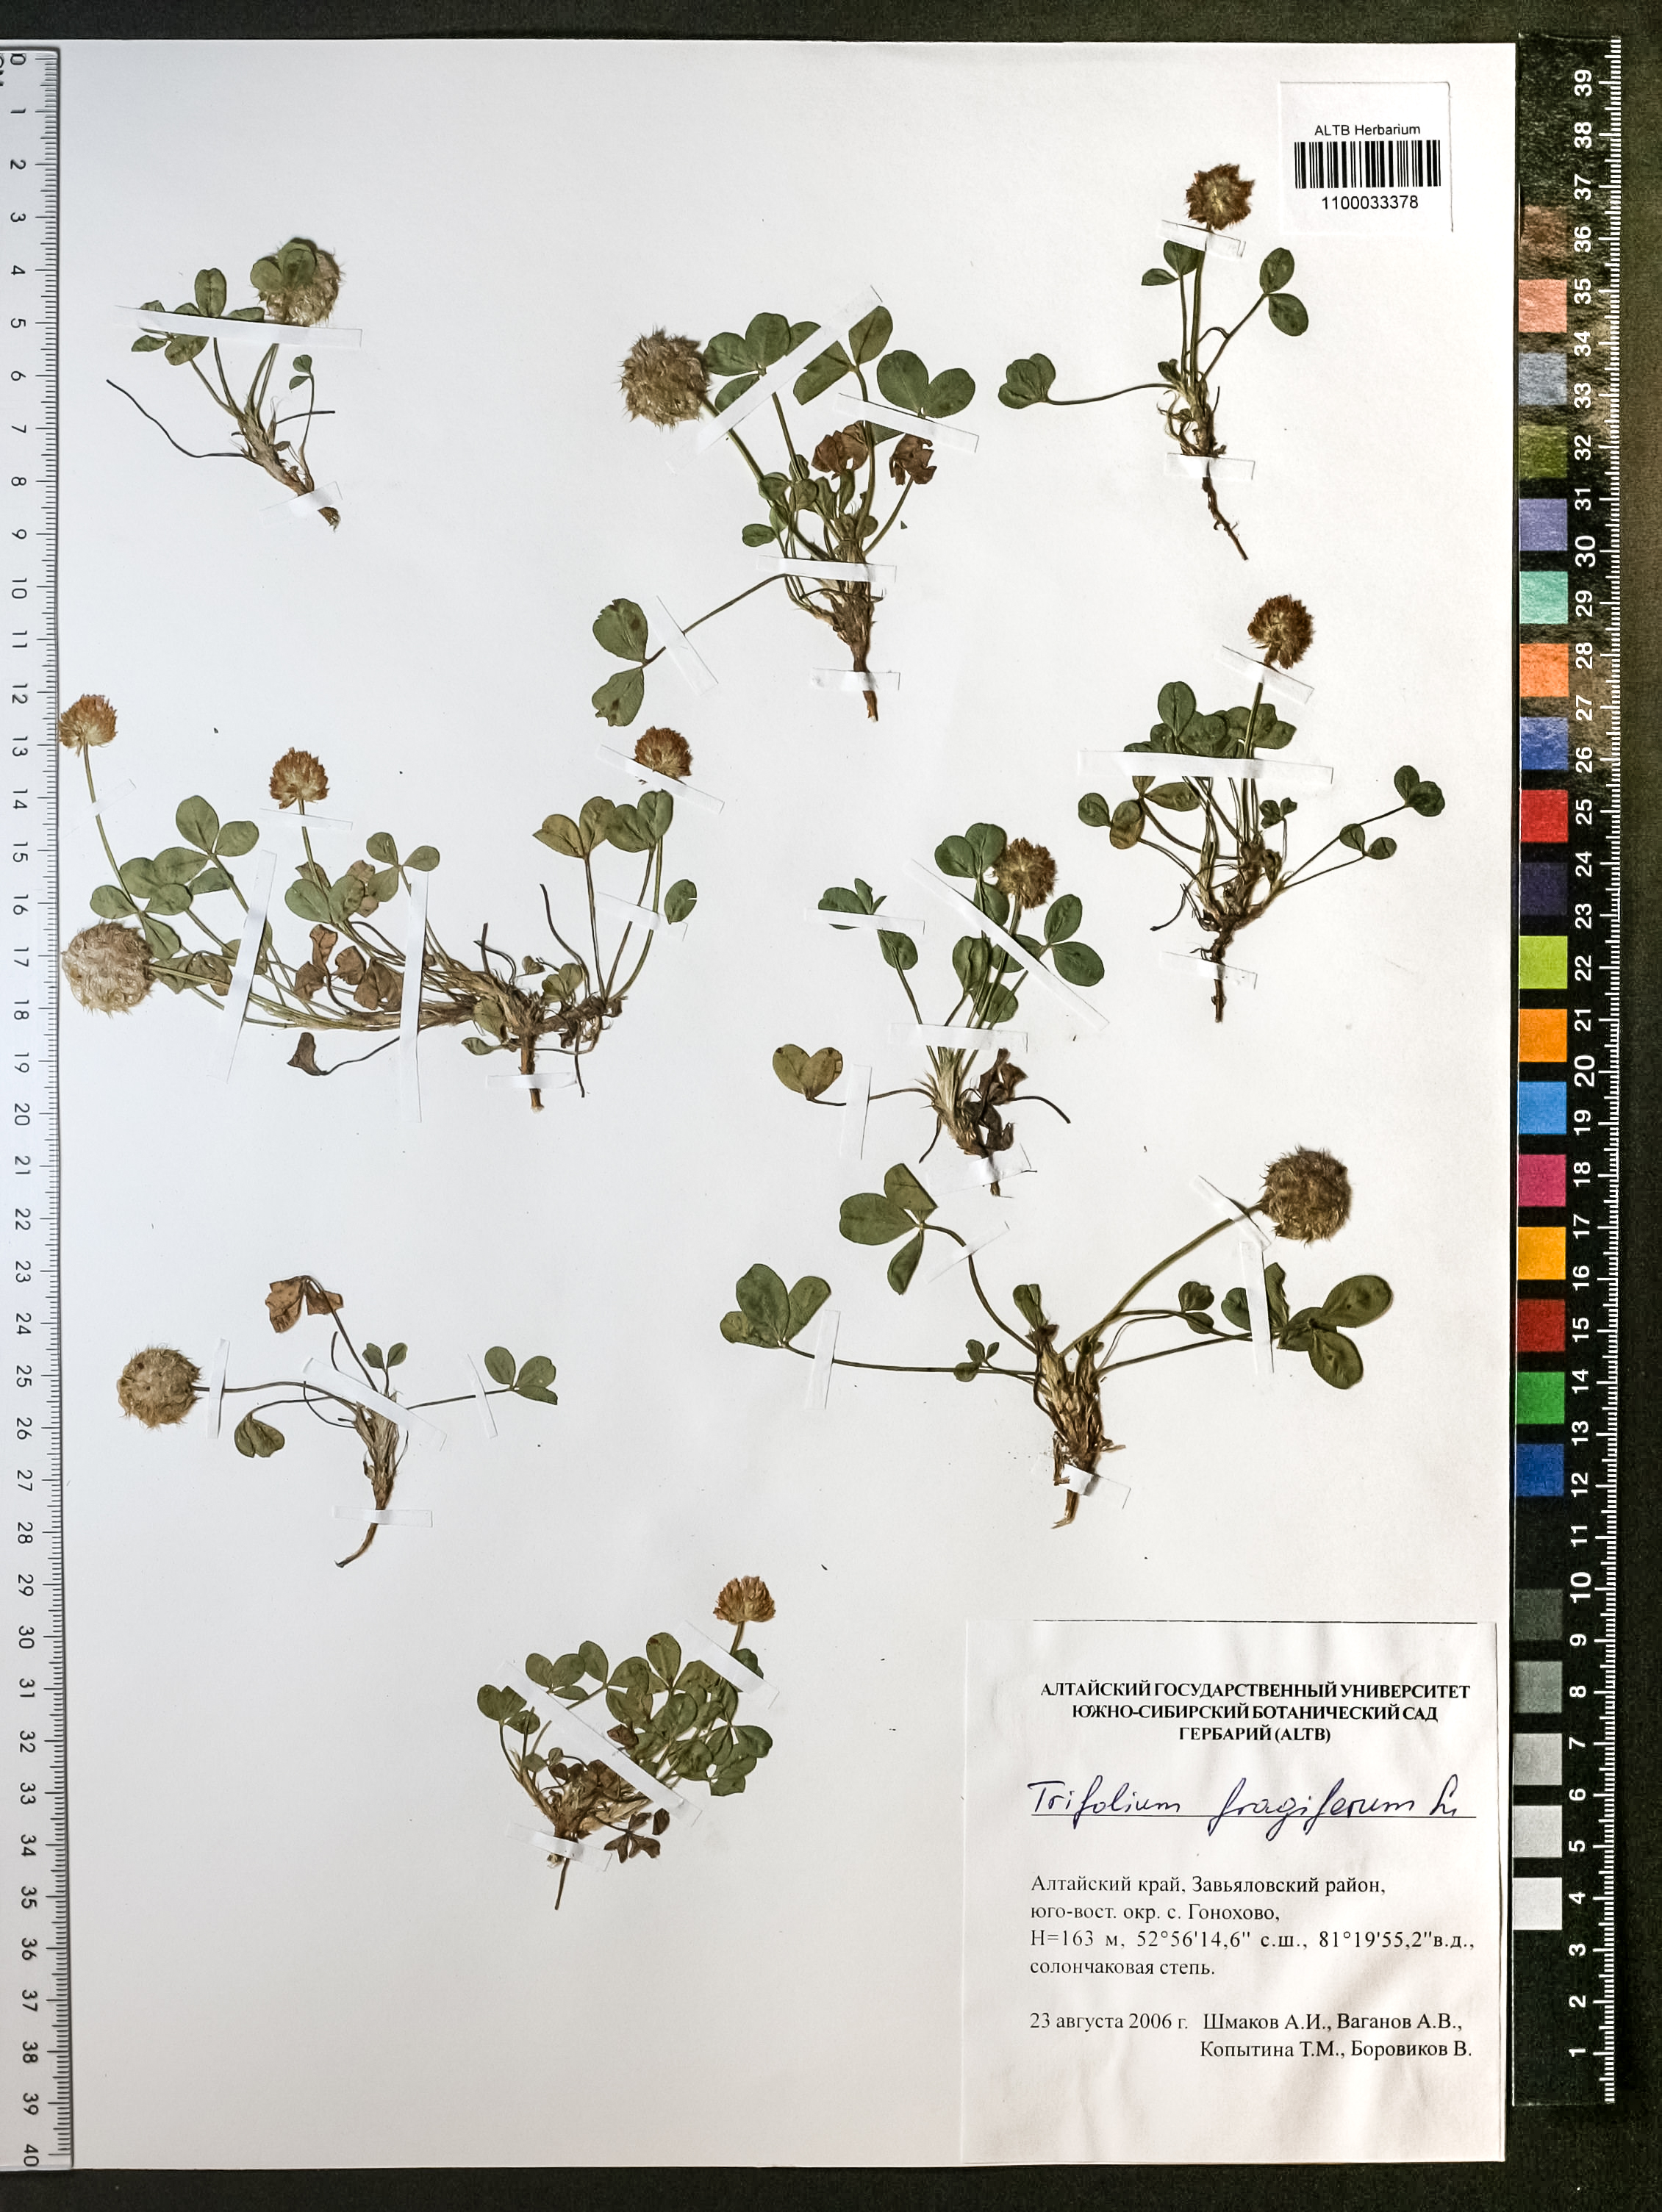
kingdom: Plantae
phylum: Tracheophyta
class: Magnoliopsida
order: Fabales
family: Fabaceae
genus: Trifolium
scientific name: Trifolium fragiferum
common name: Strawberry clover
